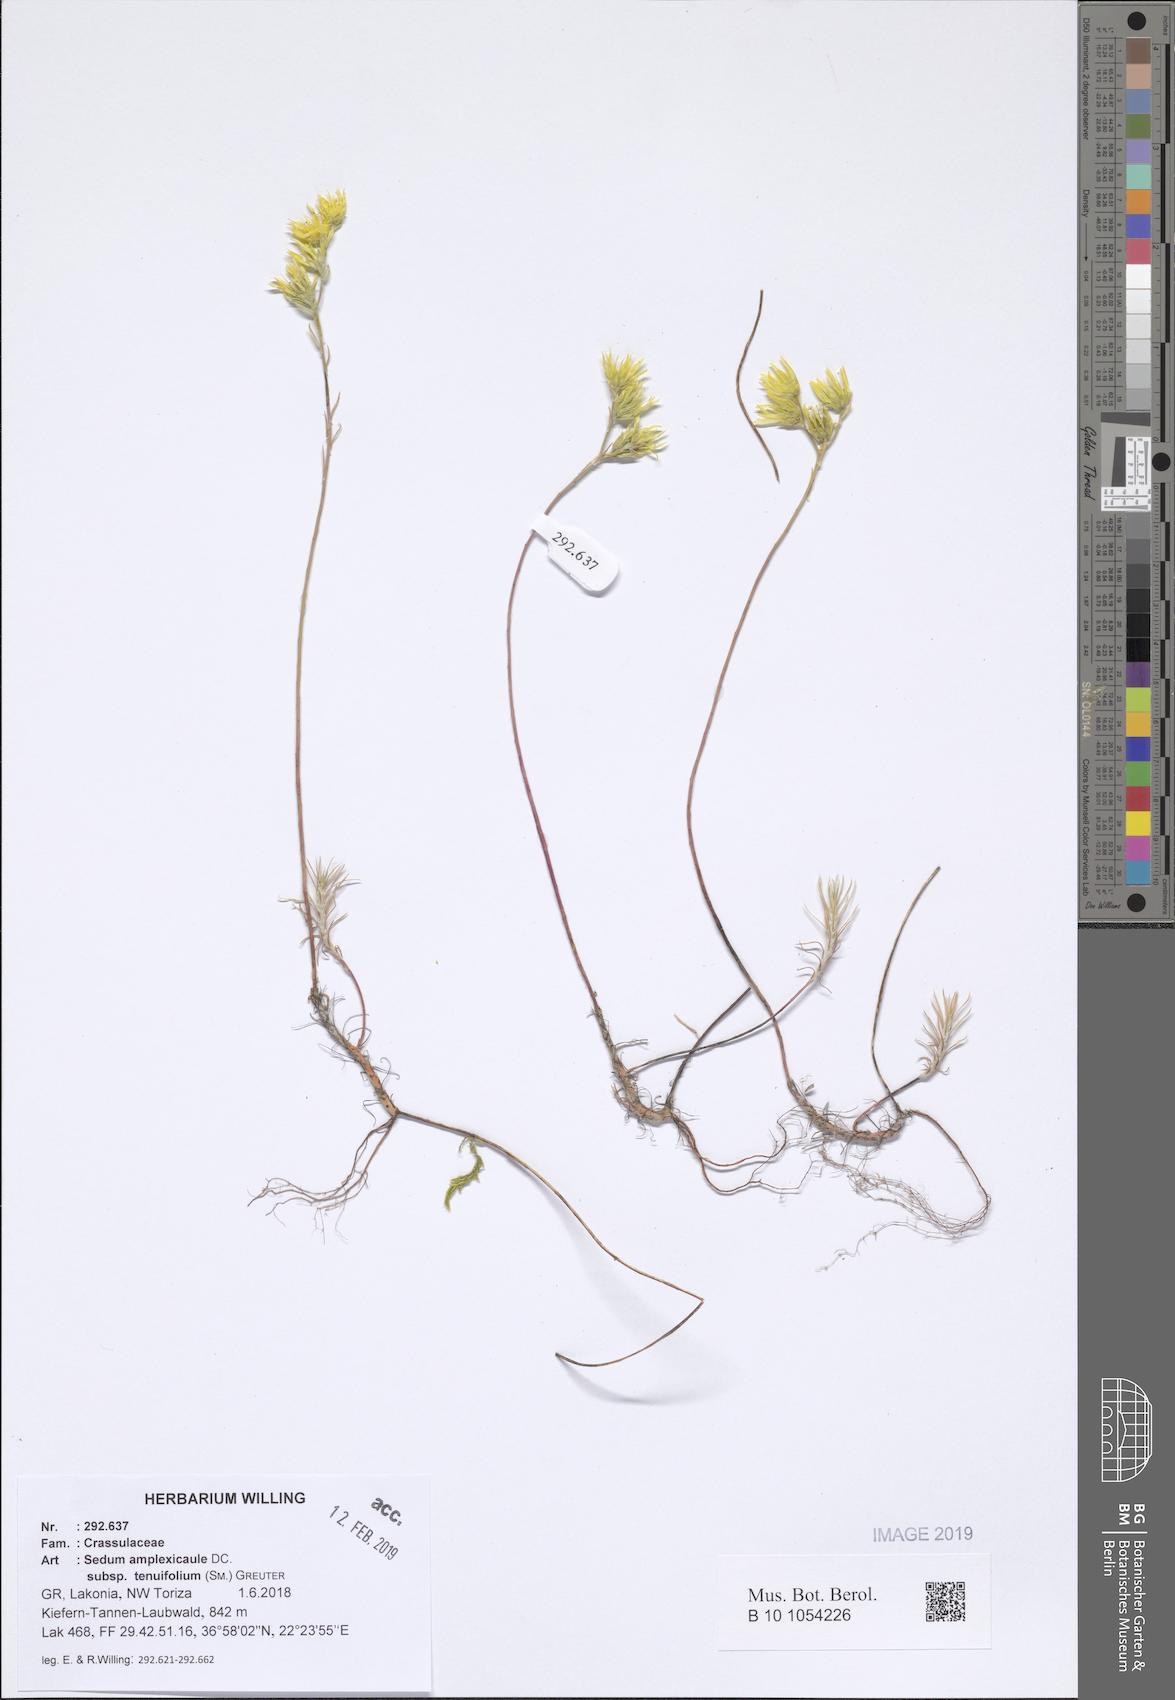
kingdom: Plantae
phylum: Tracheophyta
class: Magnoliopsida
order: Saxifragales
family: Crassulaceae
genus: Petrosedum
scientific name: Petrosedum tenuifolium
